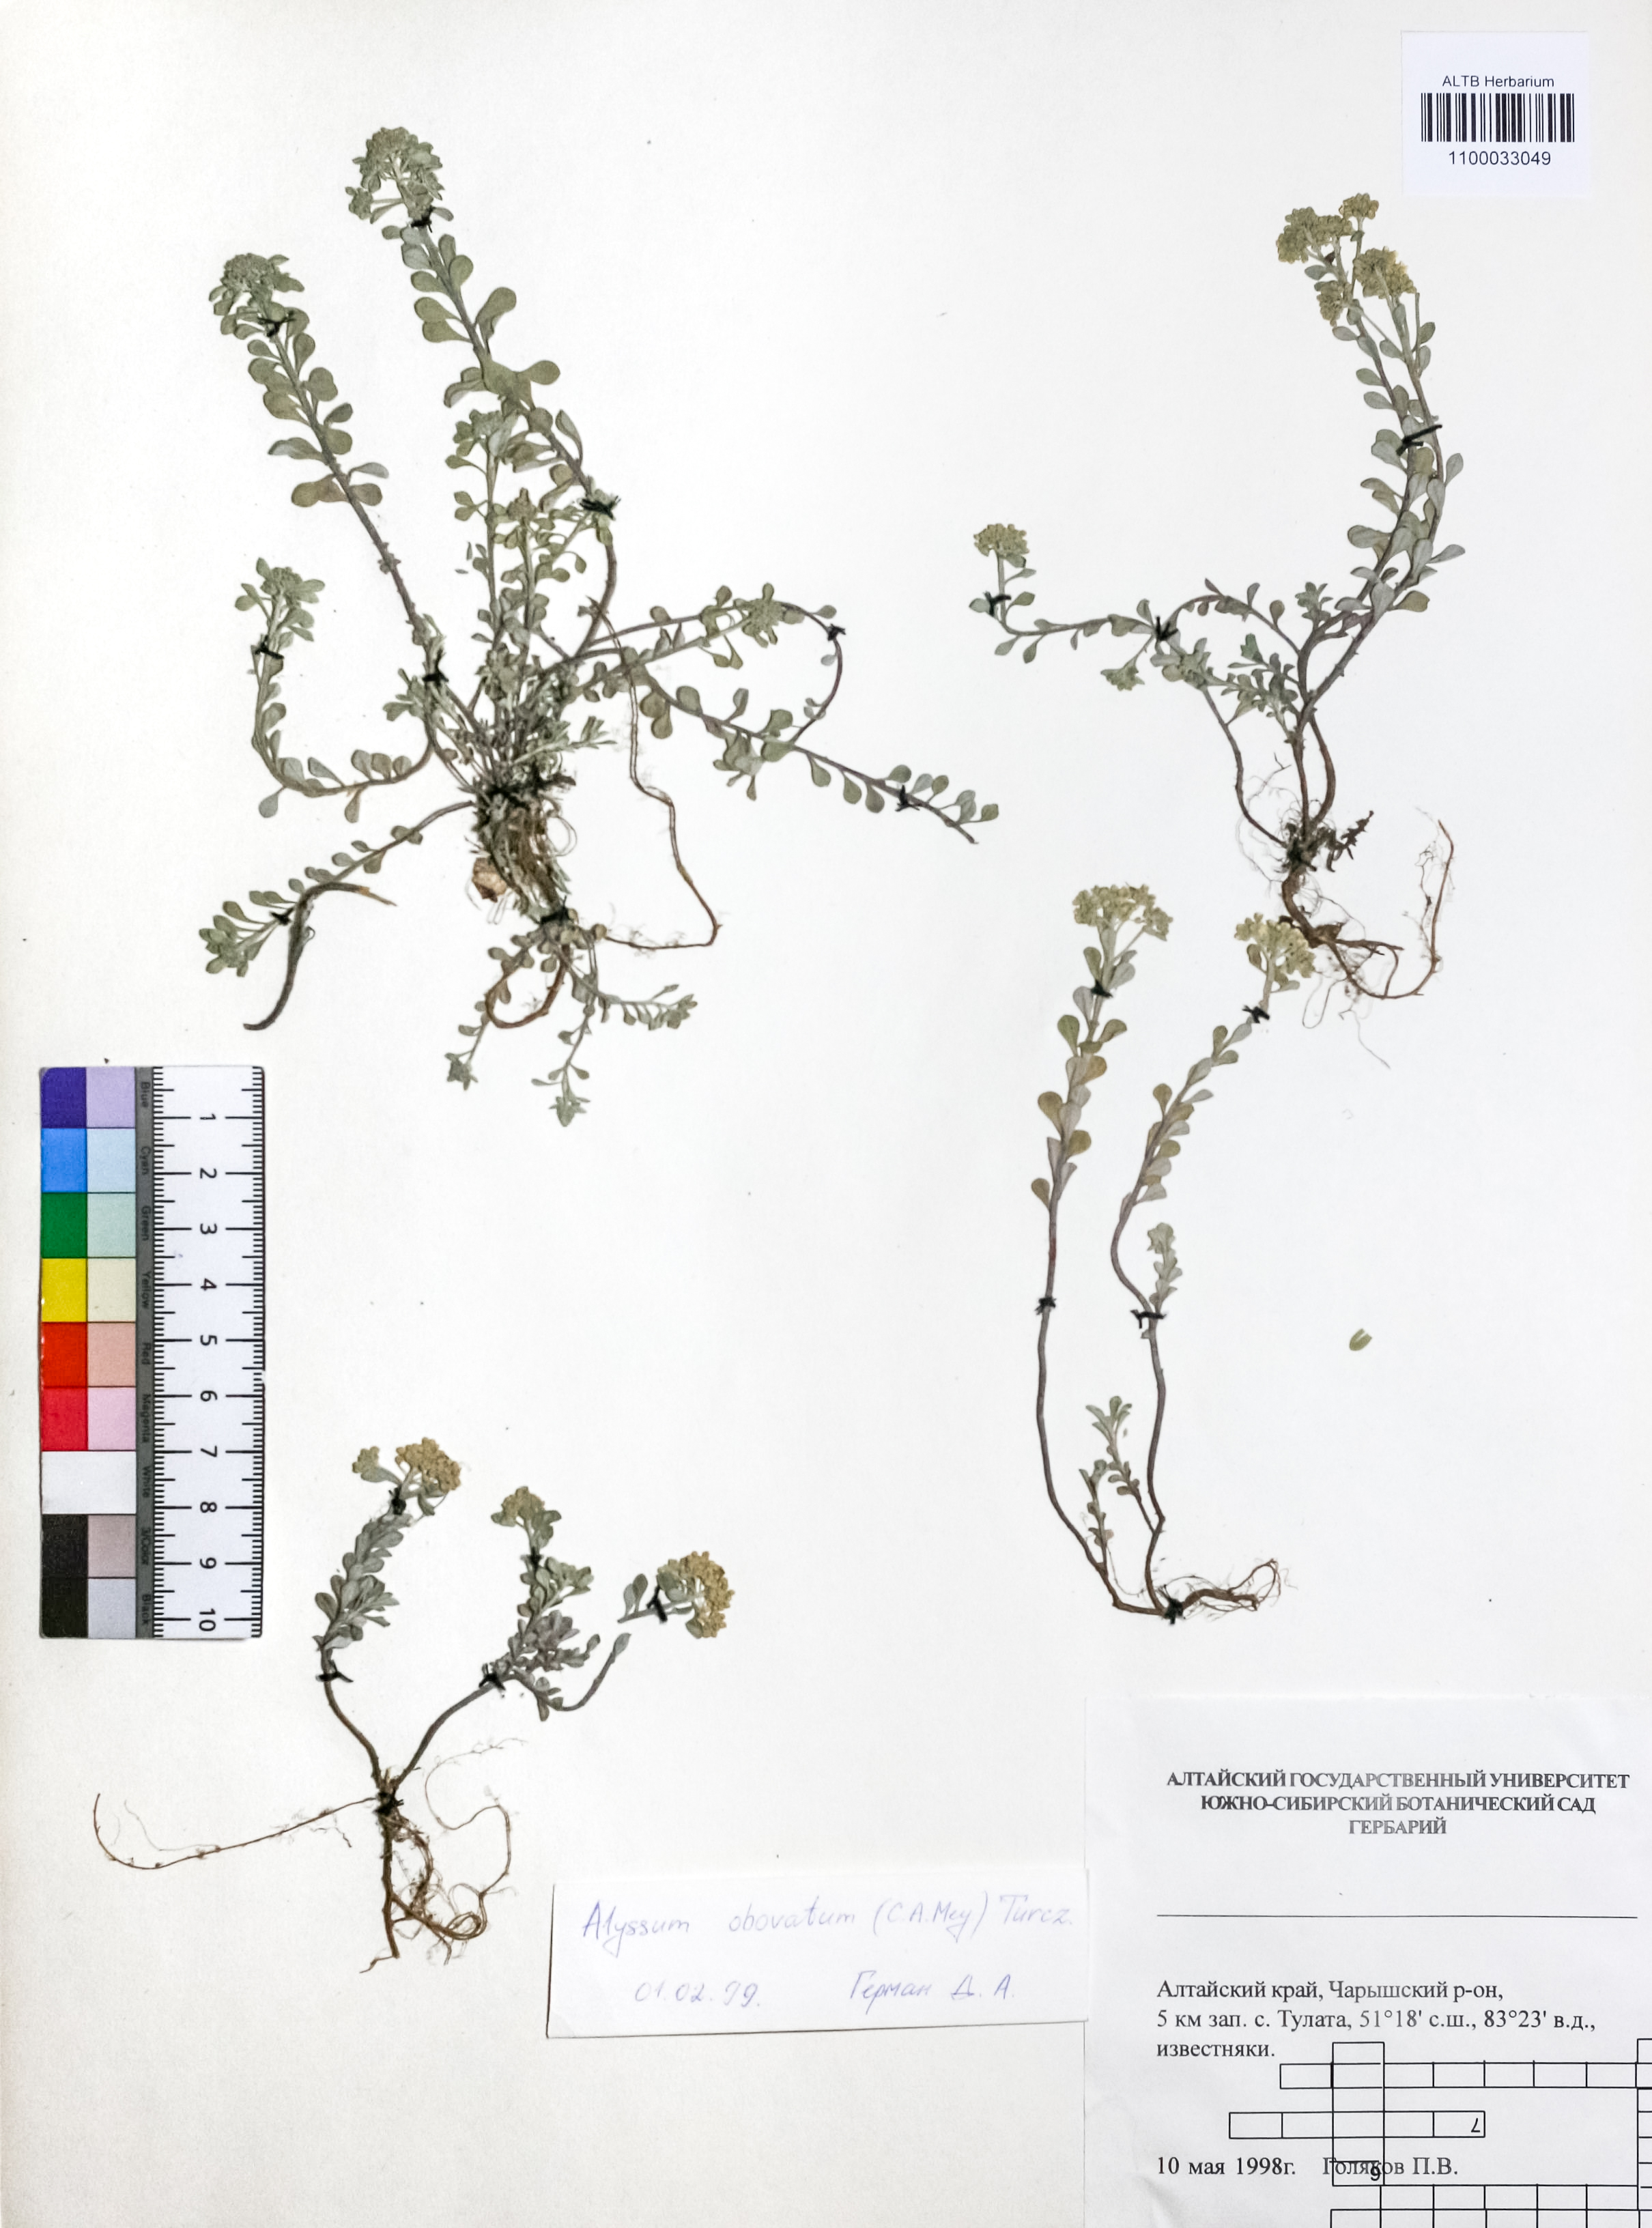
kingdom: Plantae
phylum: Tracheophyta
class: Magnoliopsida
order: Brassicales
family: Brassicaceae
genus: Odontarrhena
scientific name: Odontarrhena obovata
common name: American alyssum
